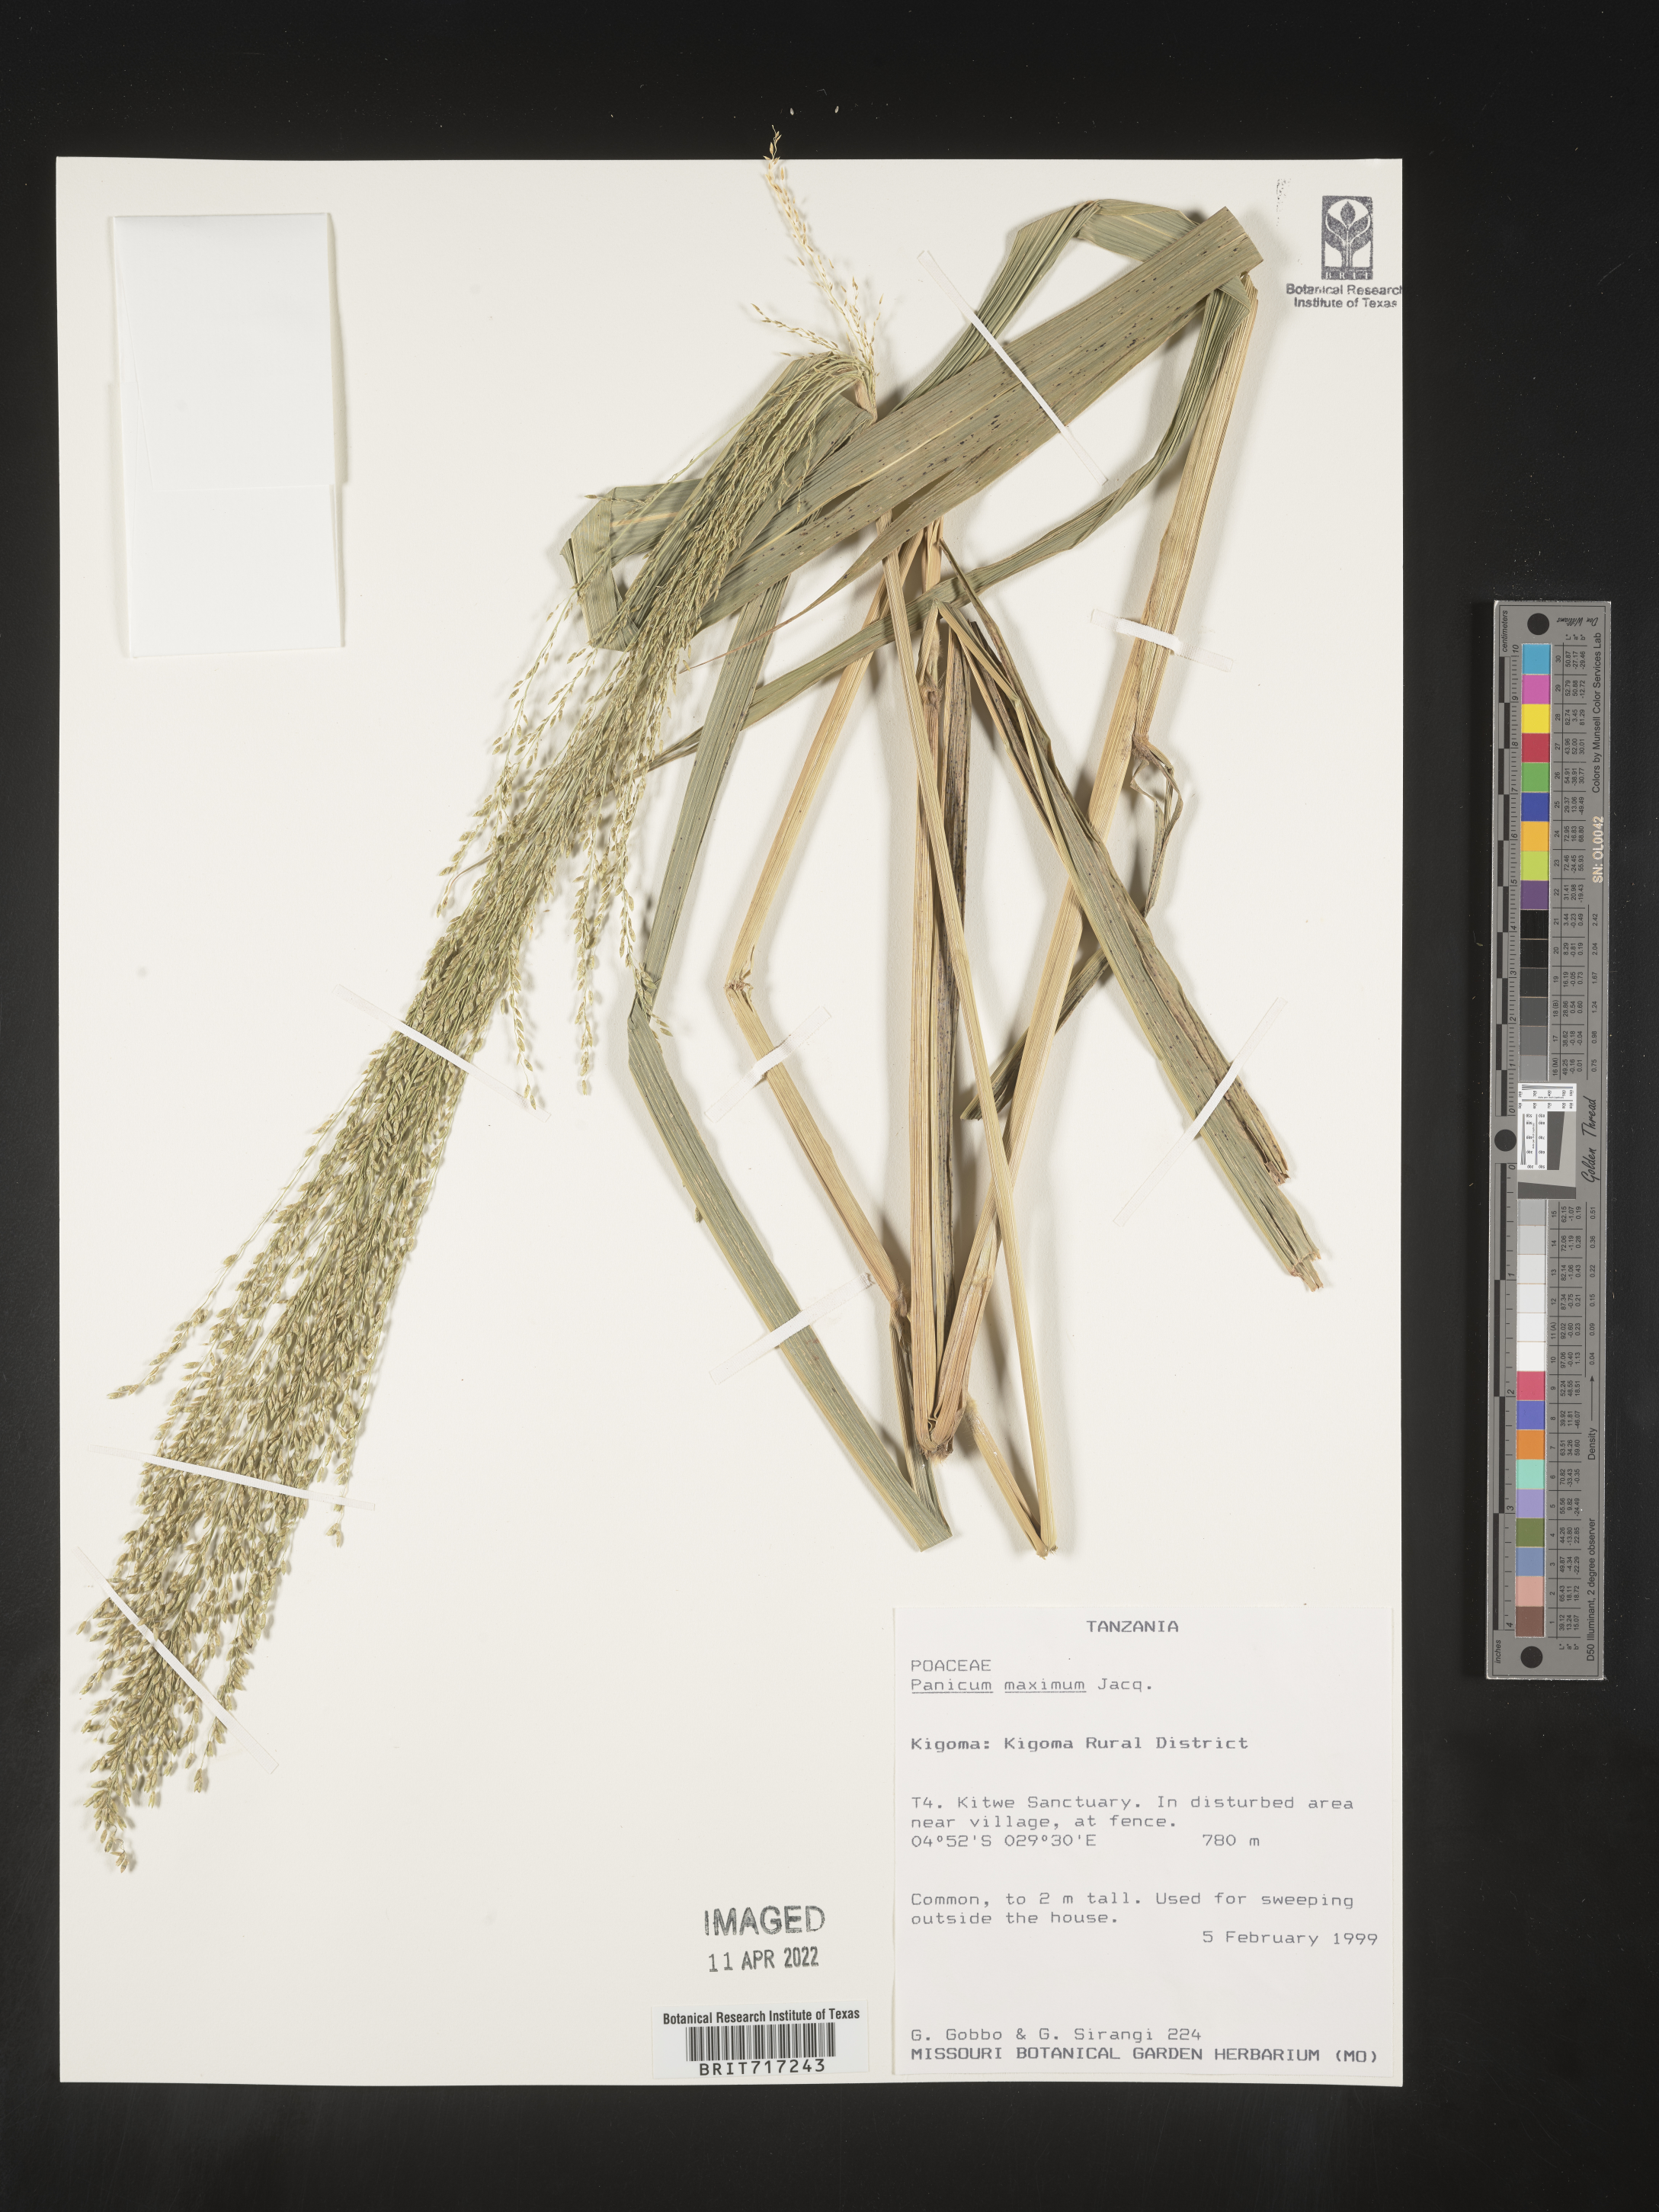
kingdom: Plantae
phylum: Tracheophyta
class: Liliopsida
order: Poales
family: Poaceae
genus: Panicum
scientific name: Panicum
